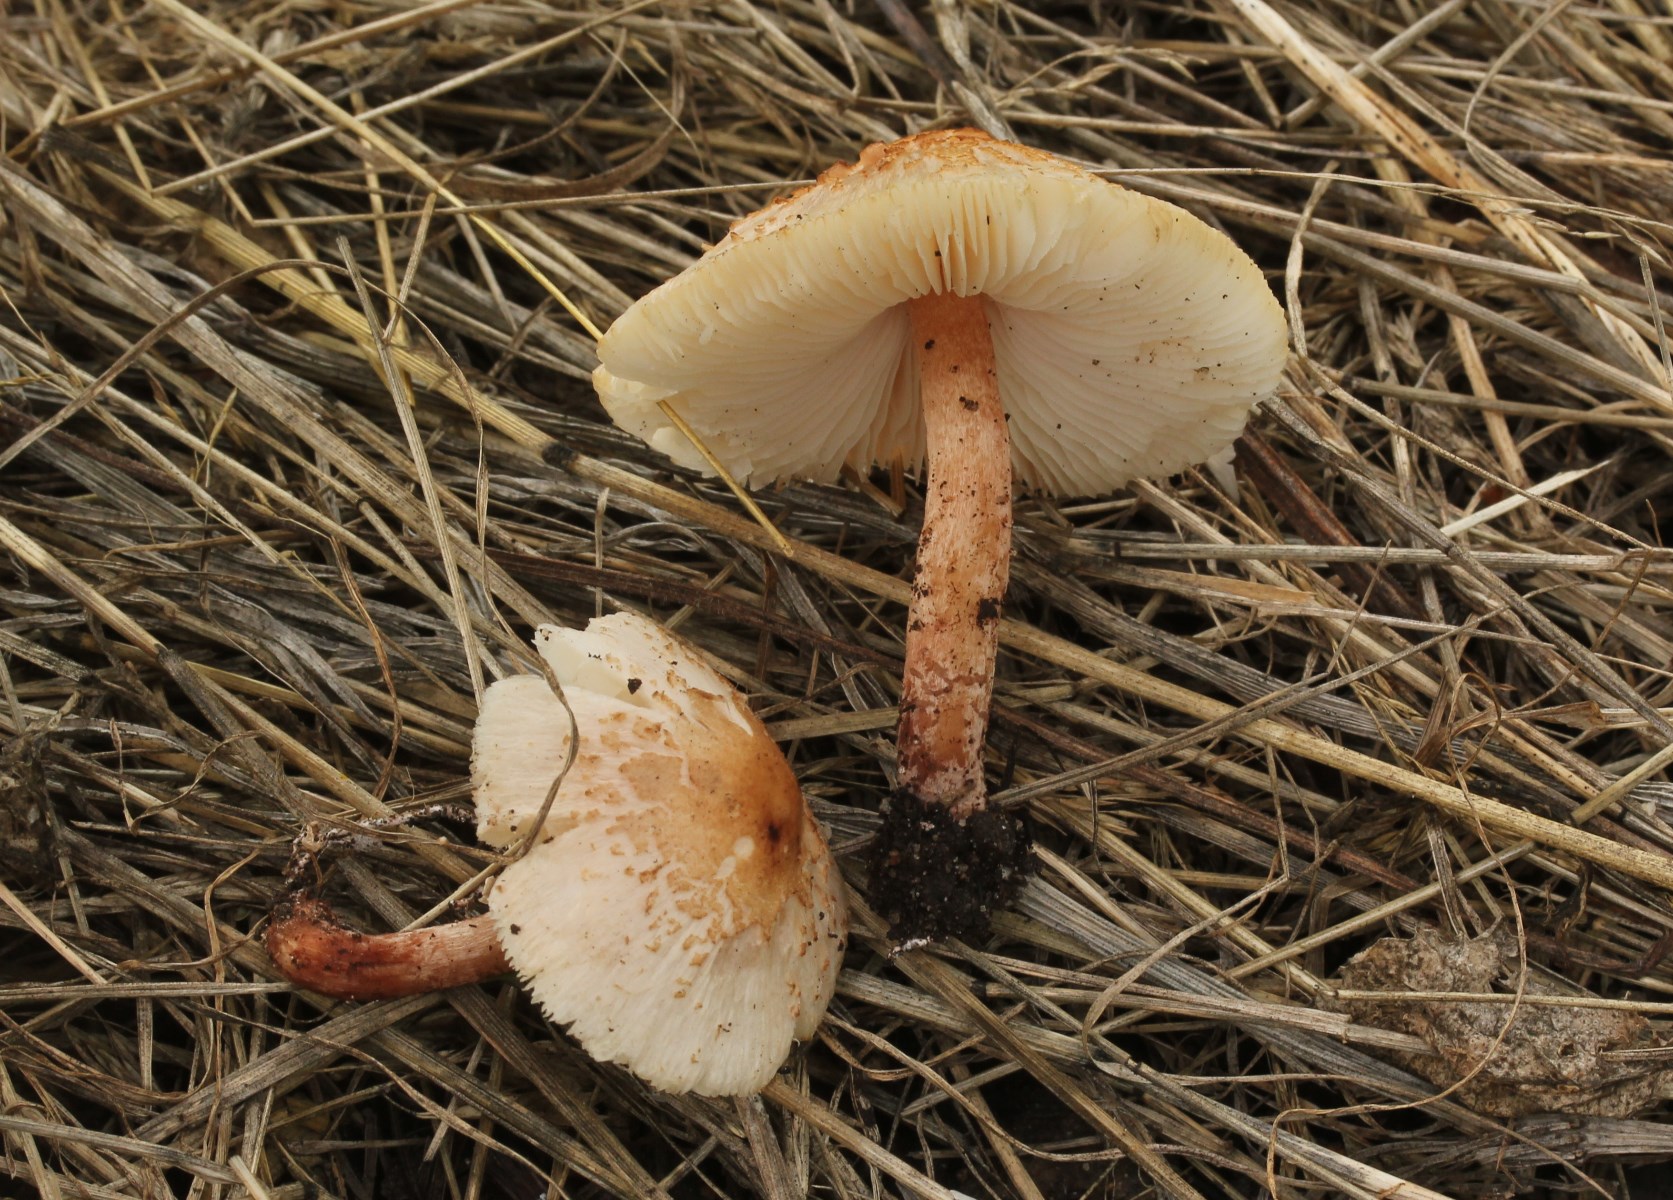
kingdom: Fungi
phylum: Basidiomycota
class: Agaricomycetes
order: Agaricales
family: Agaricaceae
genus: Lepiota
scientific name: Lepiota
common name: parasolhat
